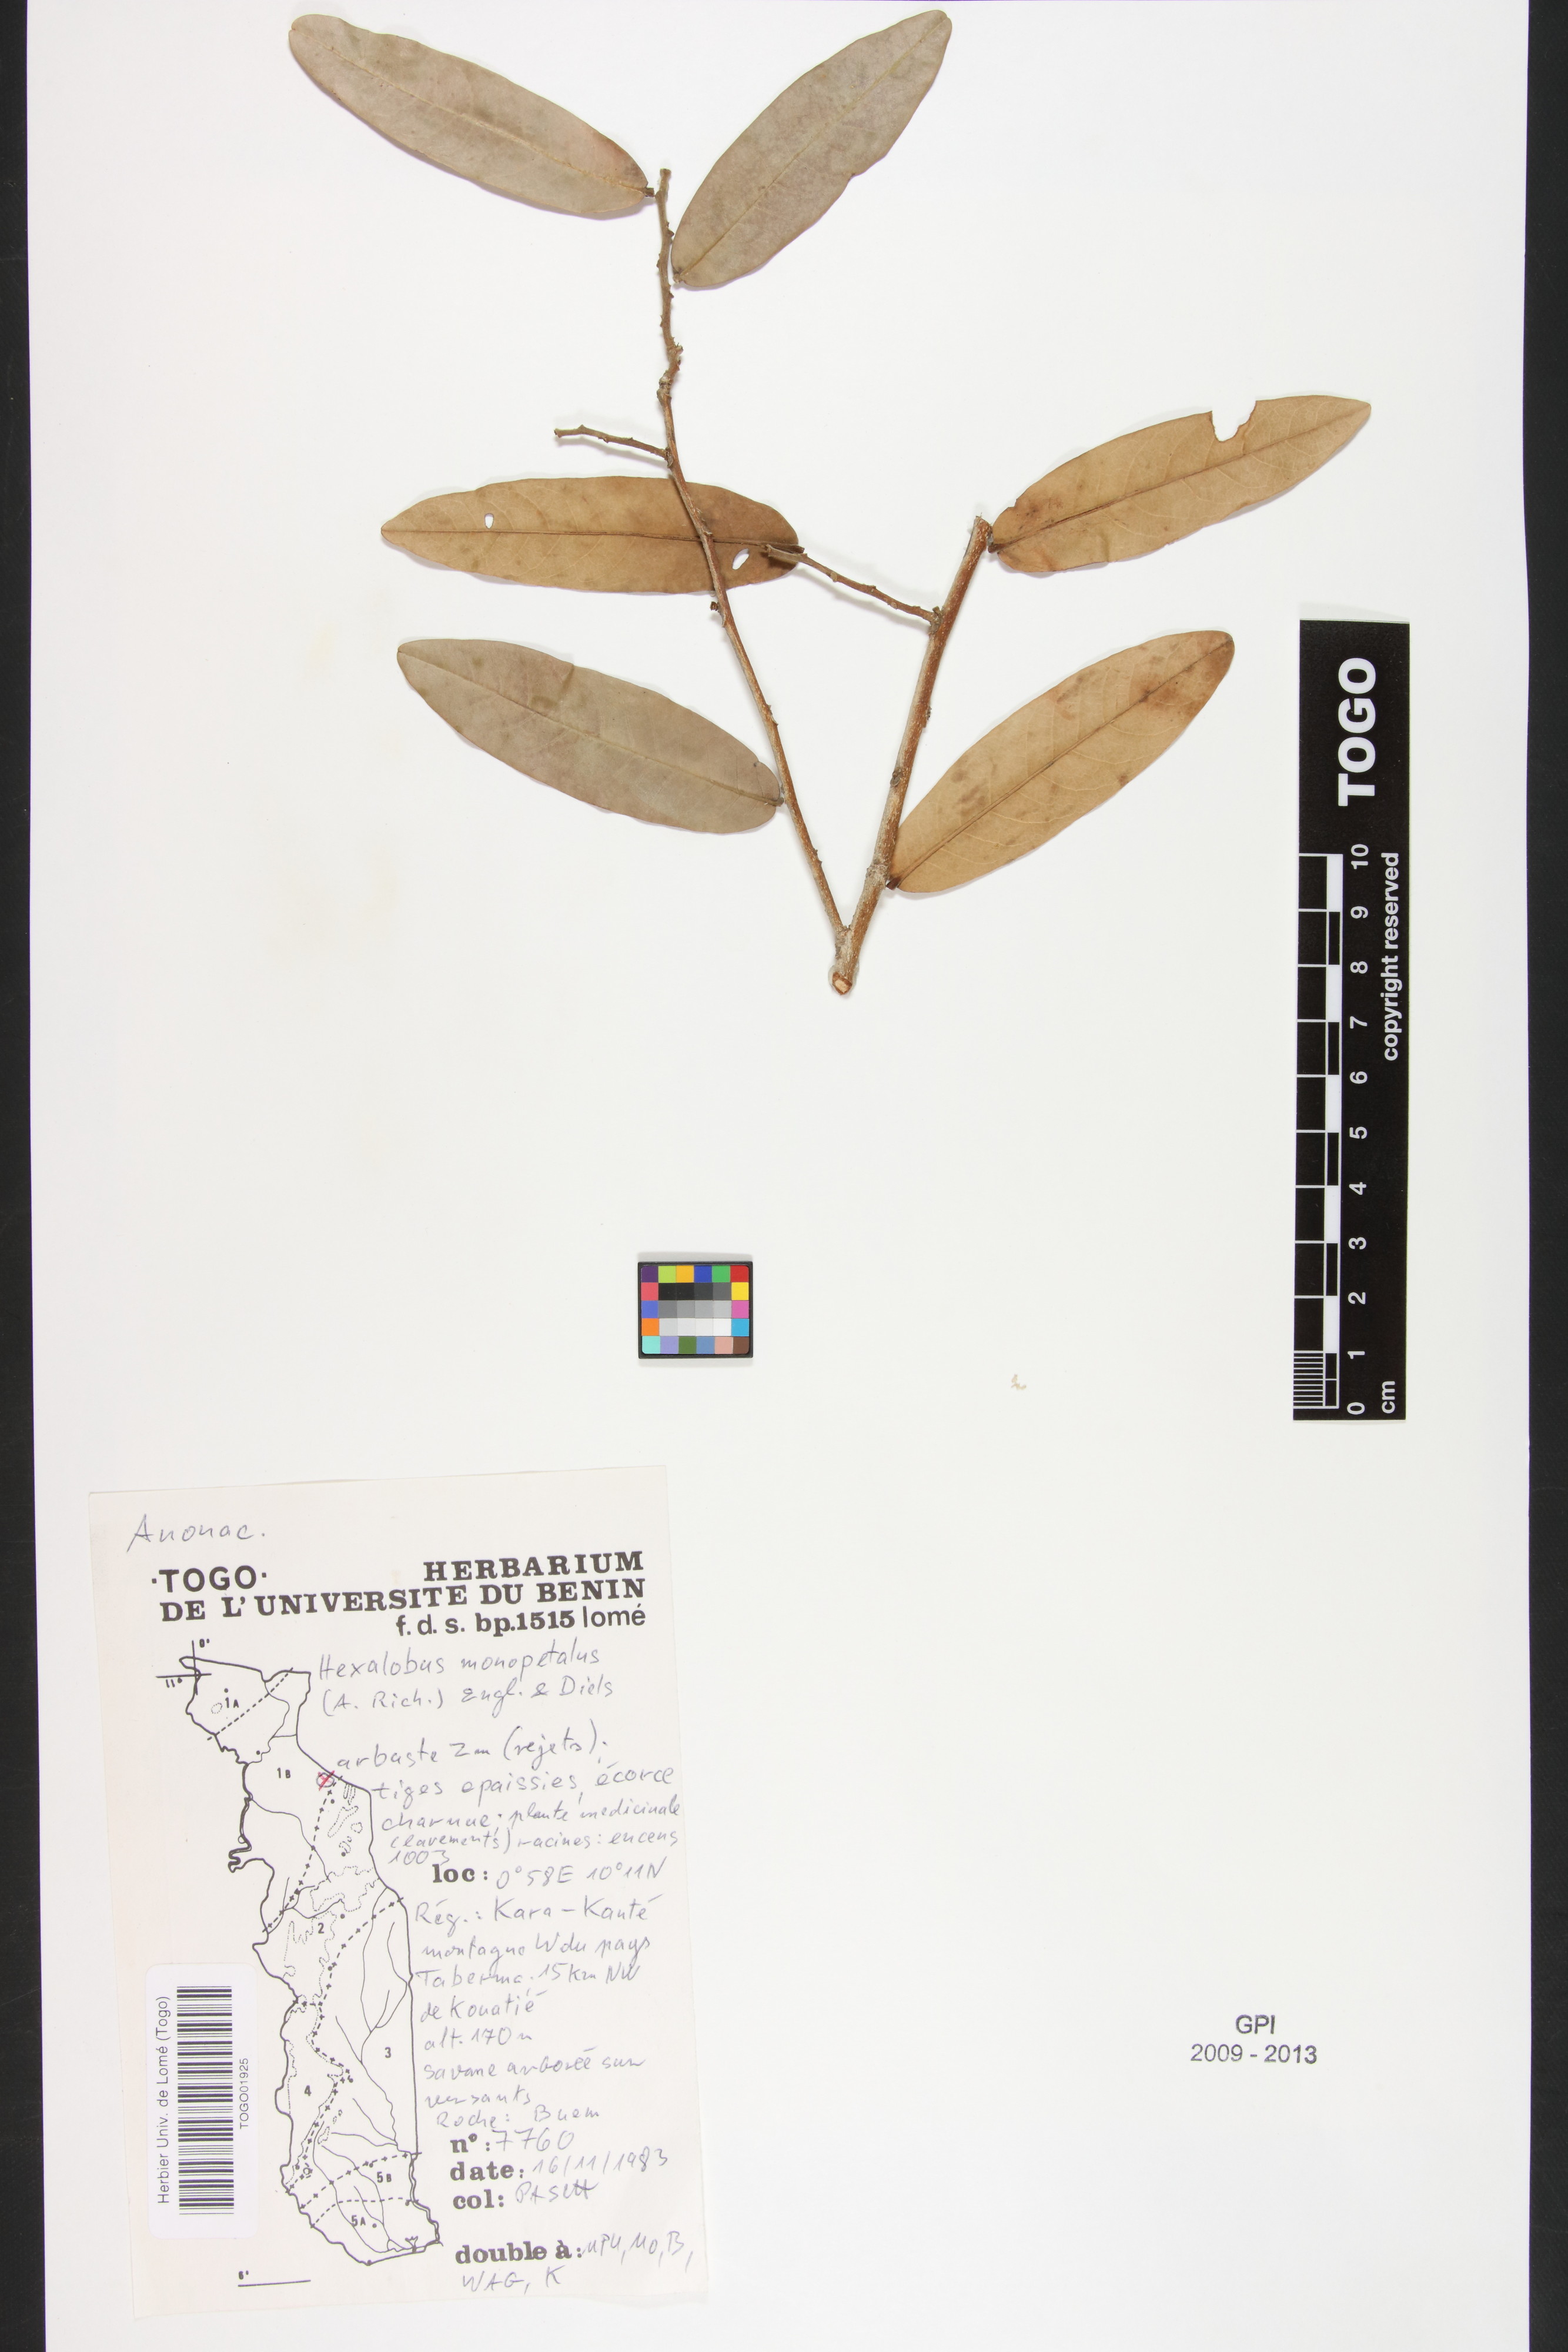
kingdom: Plantae
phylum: Tracheophyta
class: Magnoliopsida
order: Magnoliales
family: Annonaceae
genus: Hexalobus
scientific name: Hexalobus monopetalus
